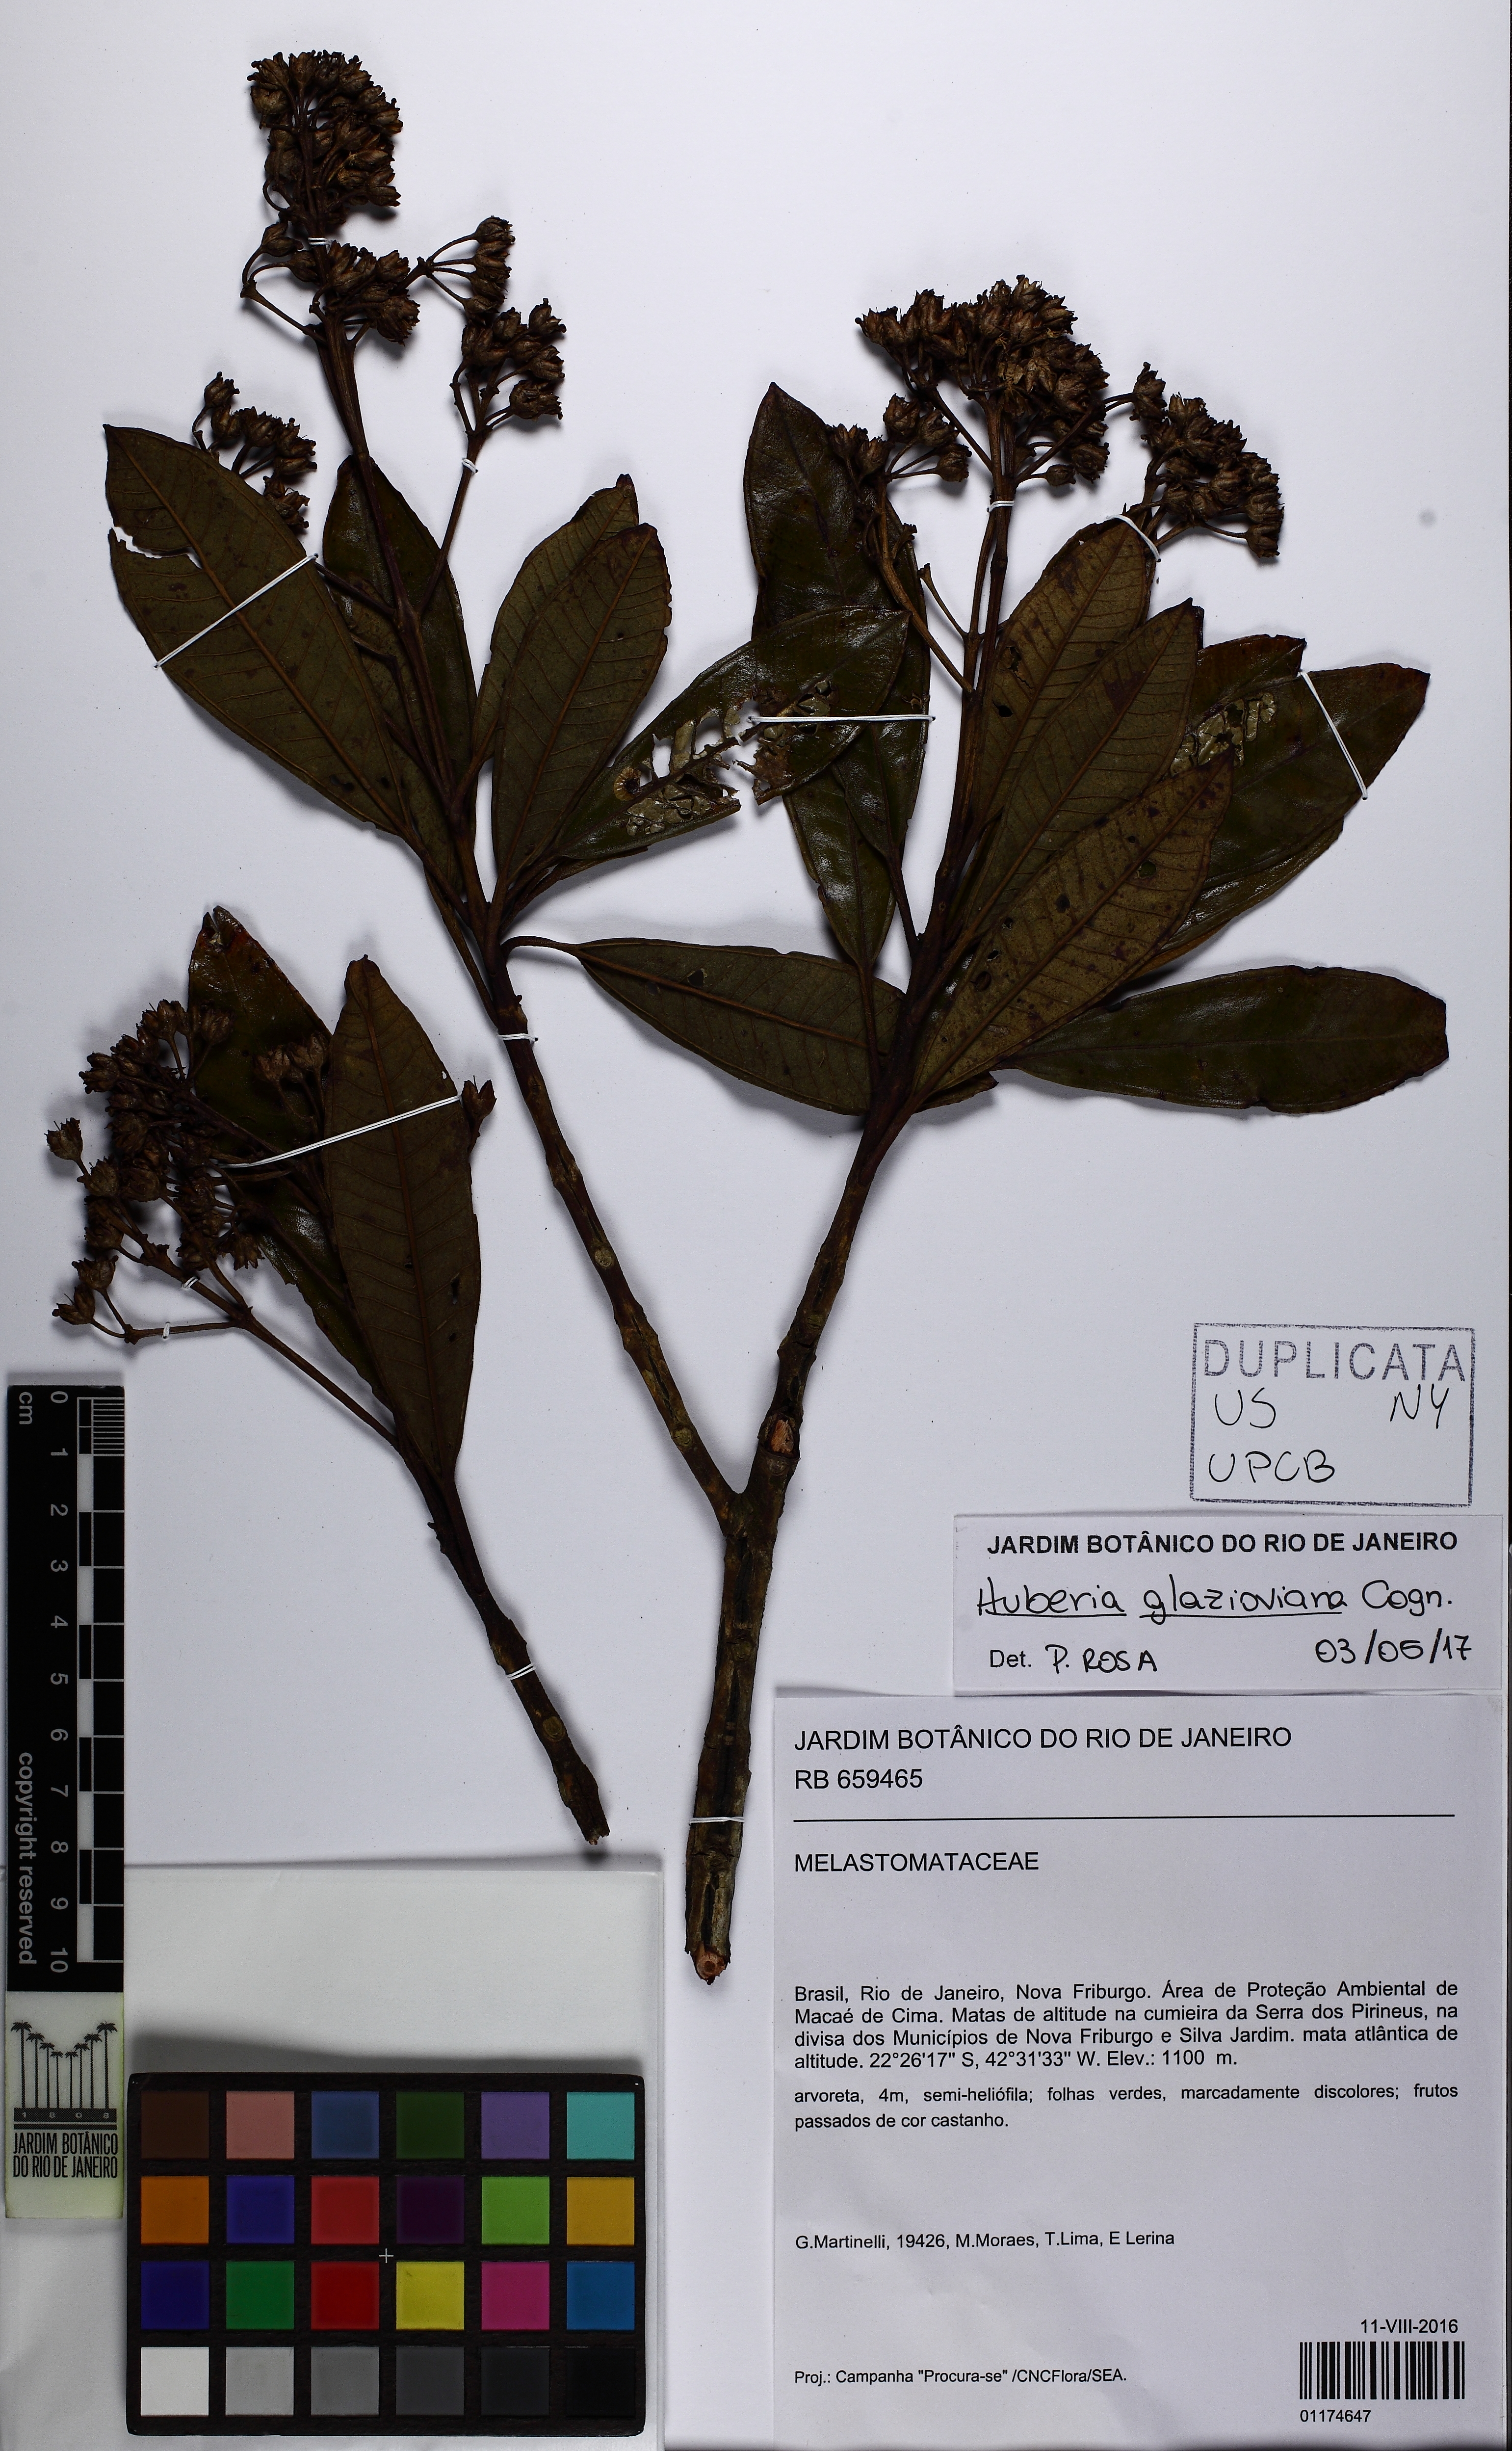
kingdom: Plantae
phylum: Tracheophyta
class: Magnoliopsida
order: Myrtales
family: Melastomataceae
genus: Huberia
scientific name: Huberia glazioviana
